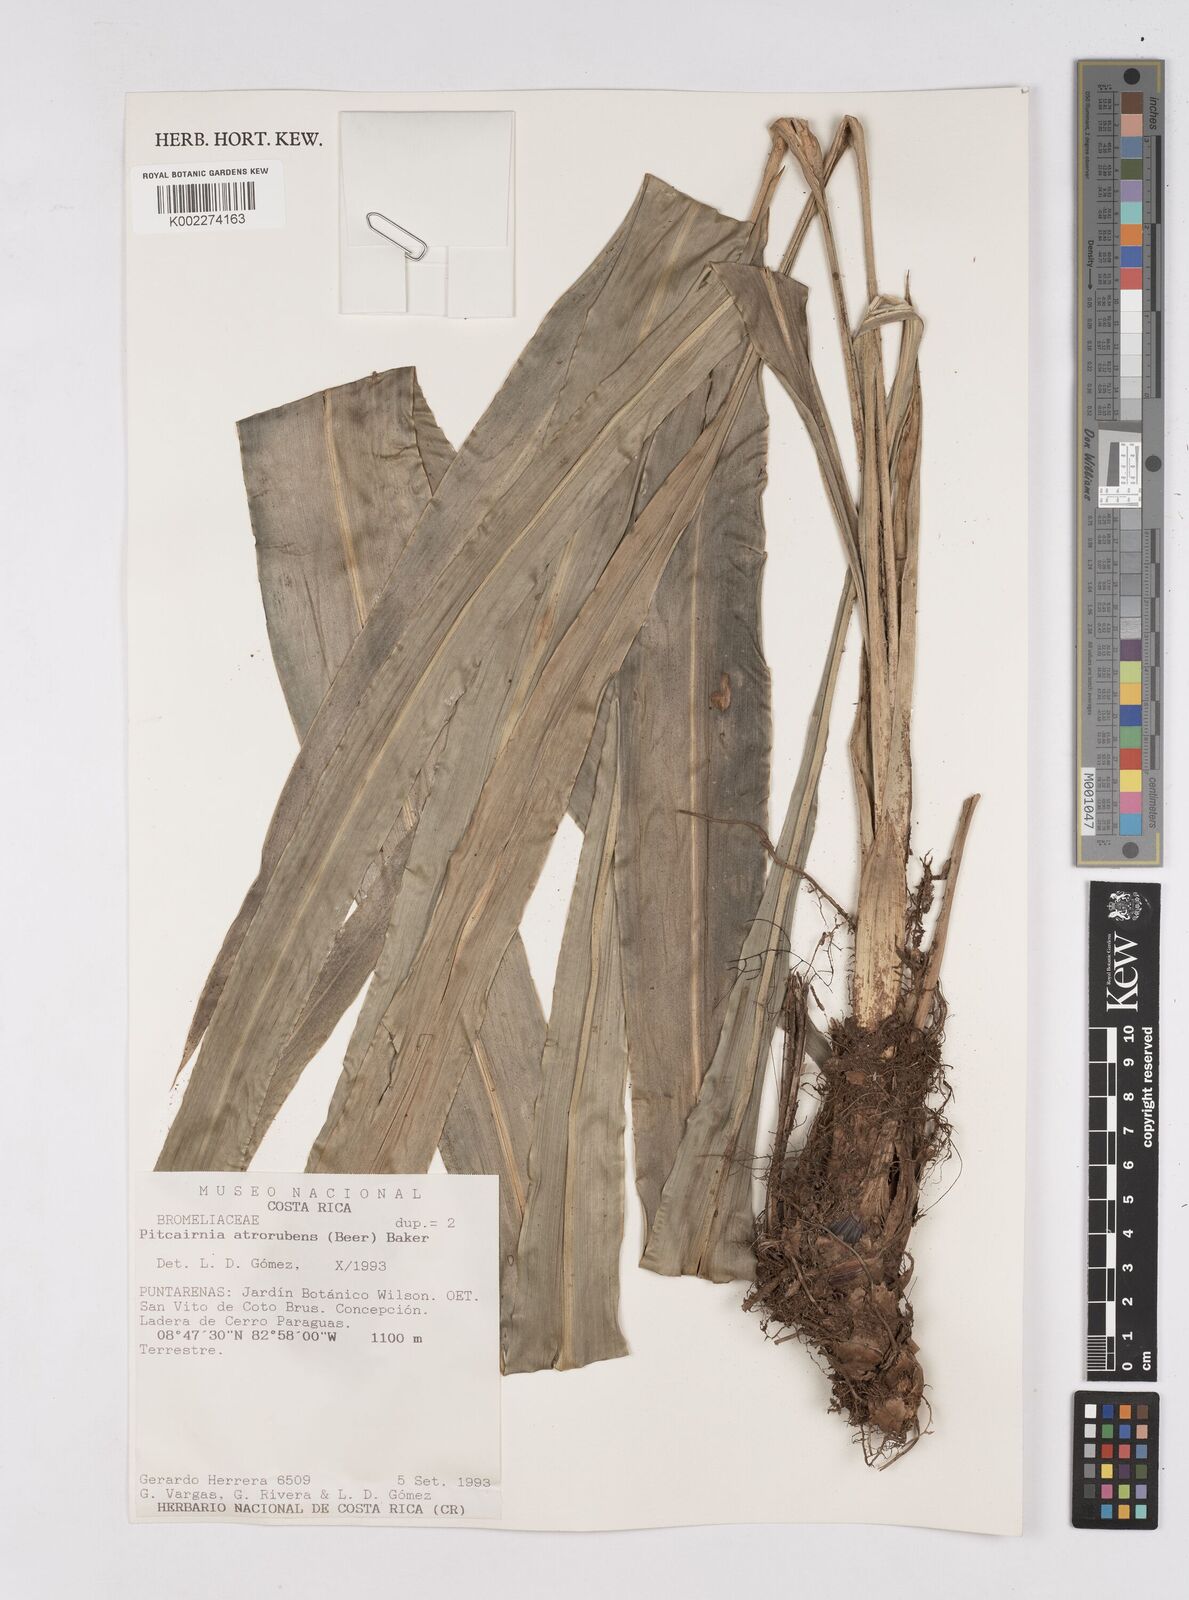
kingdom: Plantae
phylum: Tracheophyta
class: Liliopsida
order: Poales
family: Bromeliaceae
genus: Pitcairnia
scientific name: Pitcairnia atrorubens
